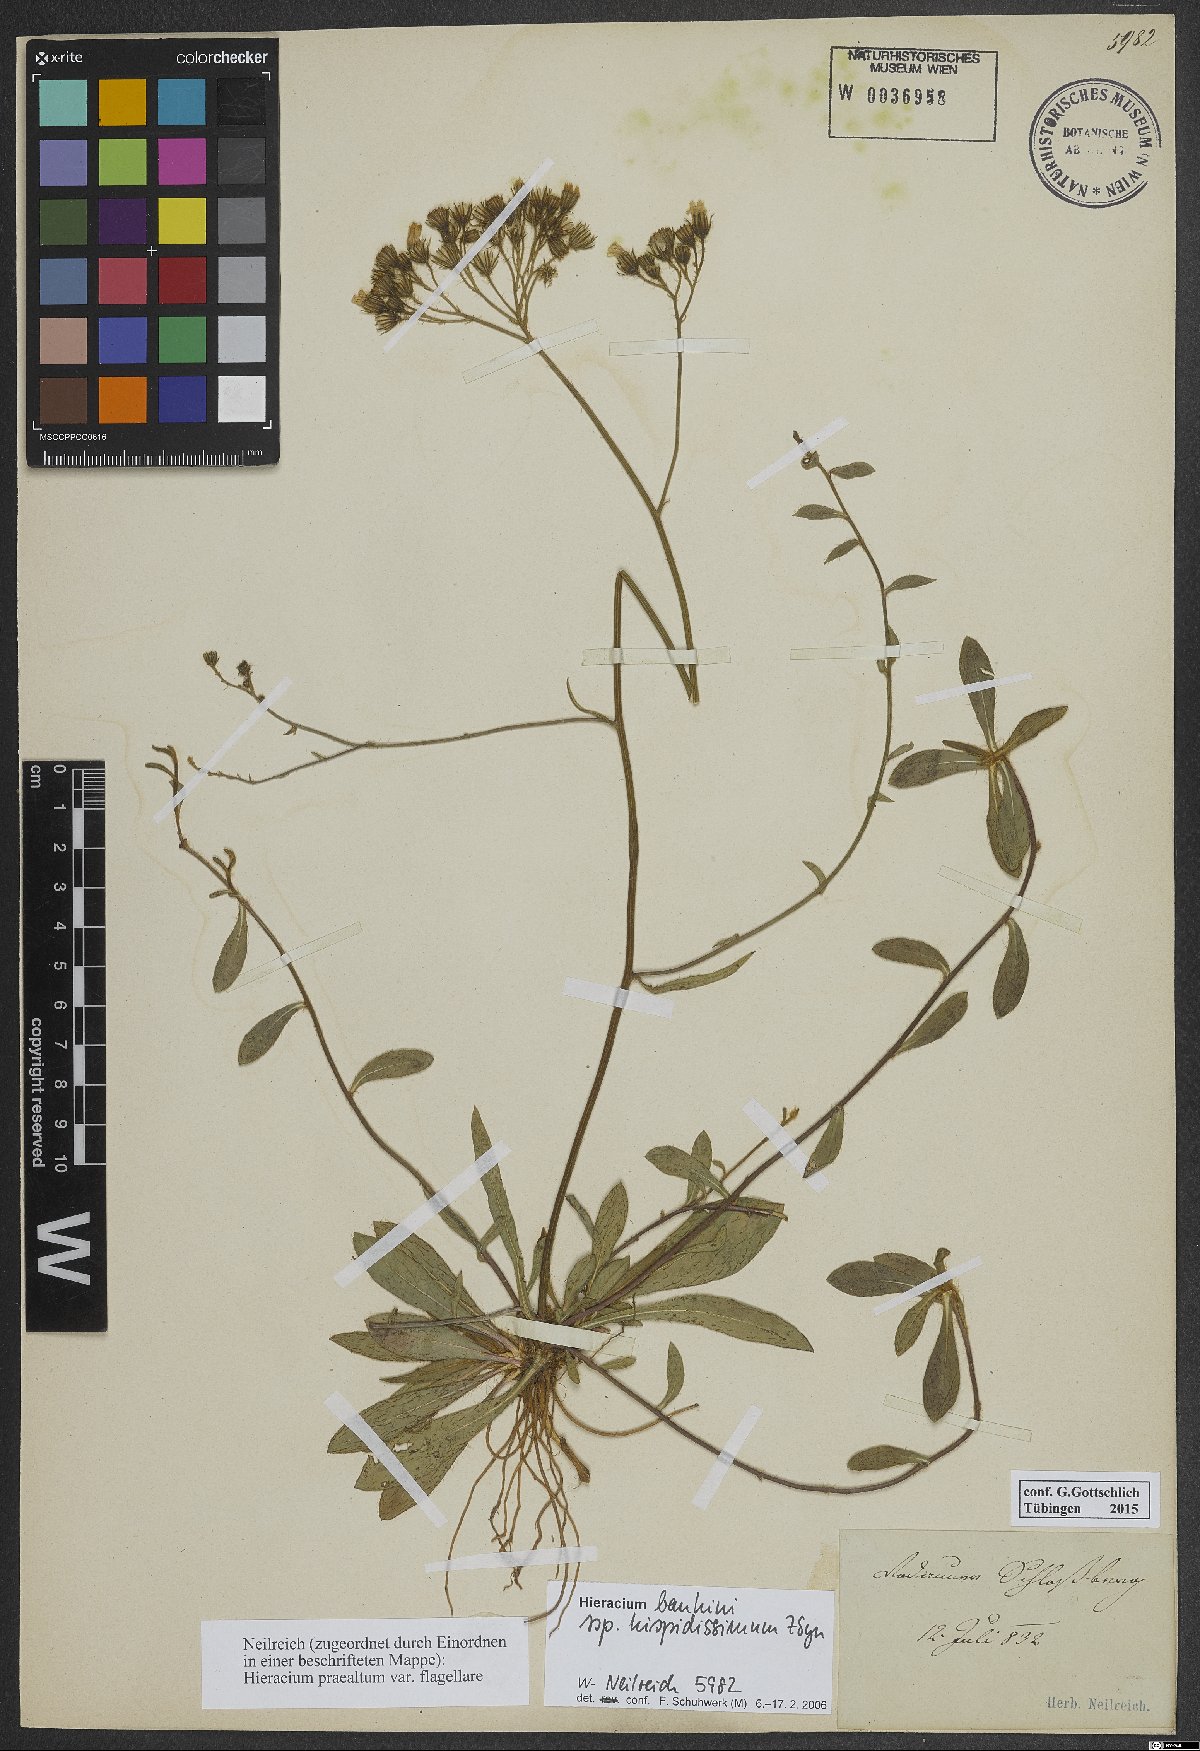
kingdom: Plantae
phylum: Tracheophyta
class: Magnoliopsida
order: Asterales
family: Asteraceae
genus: Pilosella
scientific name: Pilosella bauhini
